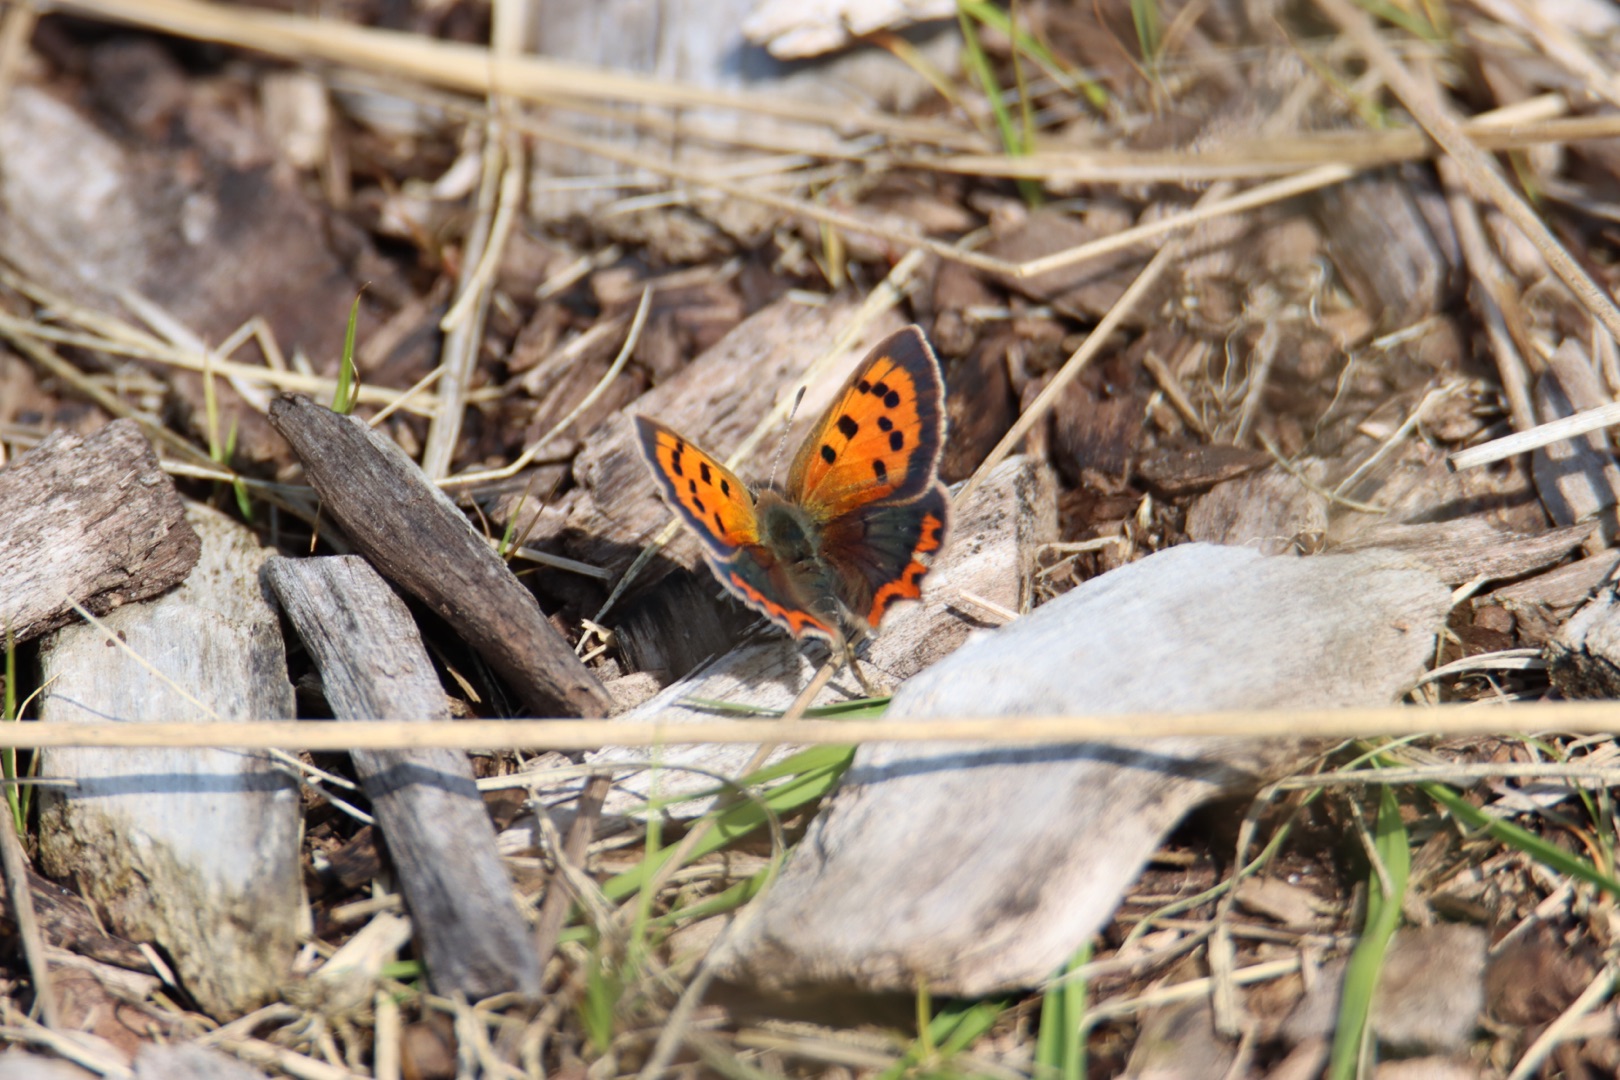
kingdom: Animalia
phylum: Arthropoda
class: Insecta
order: Lepidoptera
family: Lycaenidae
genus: Lycaena
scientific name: Lycaena phlaeas
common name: Lille ildfugl
